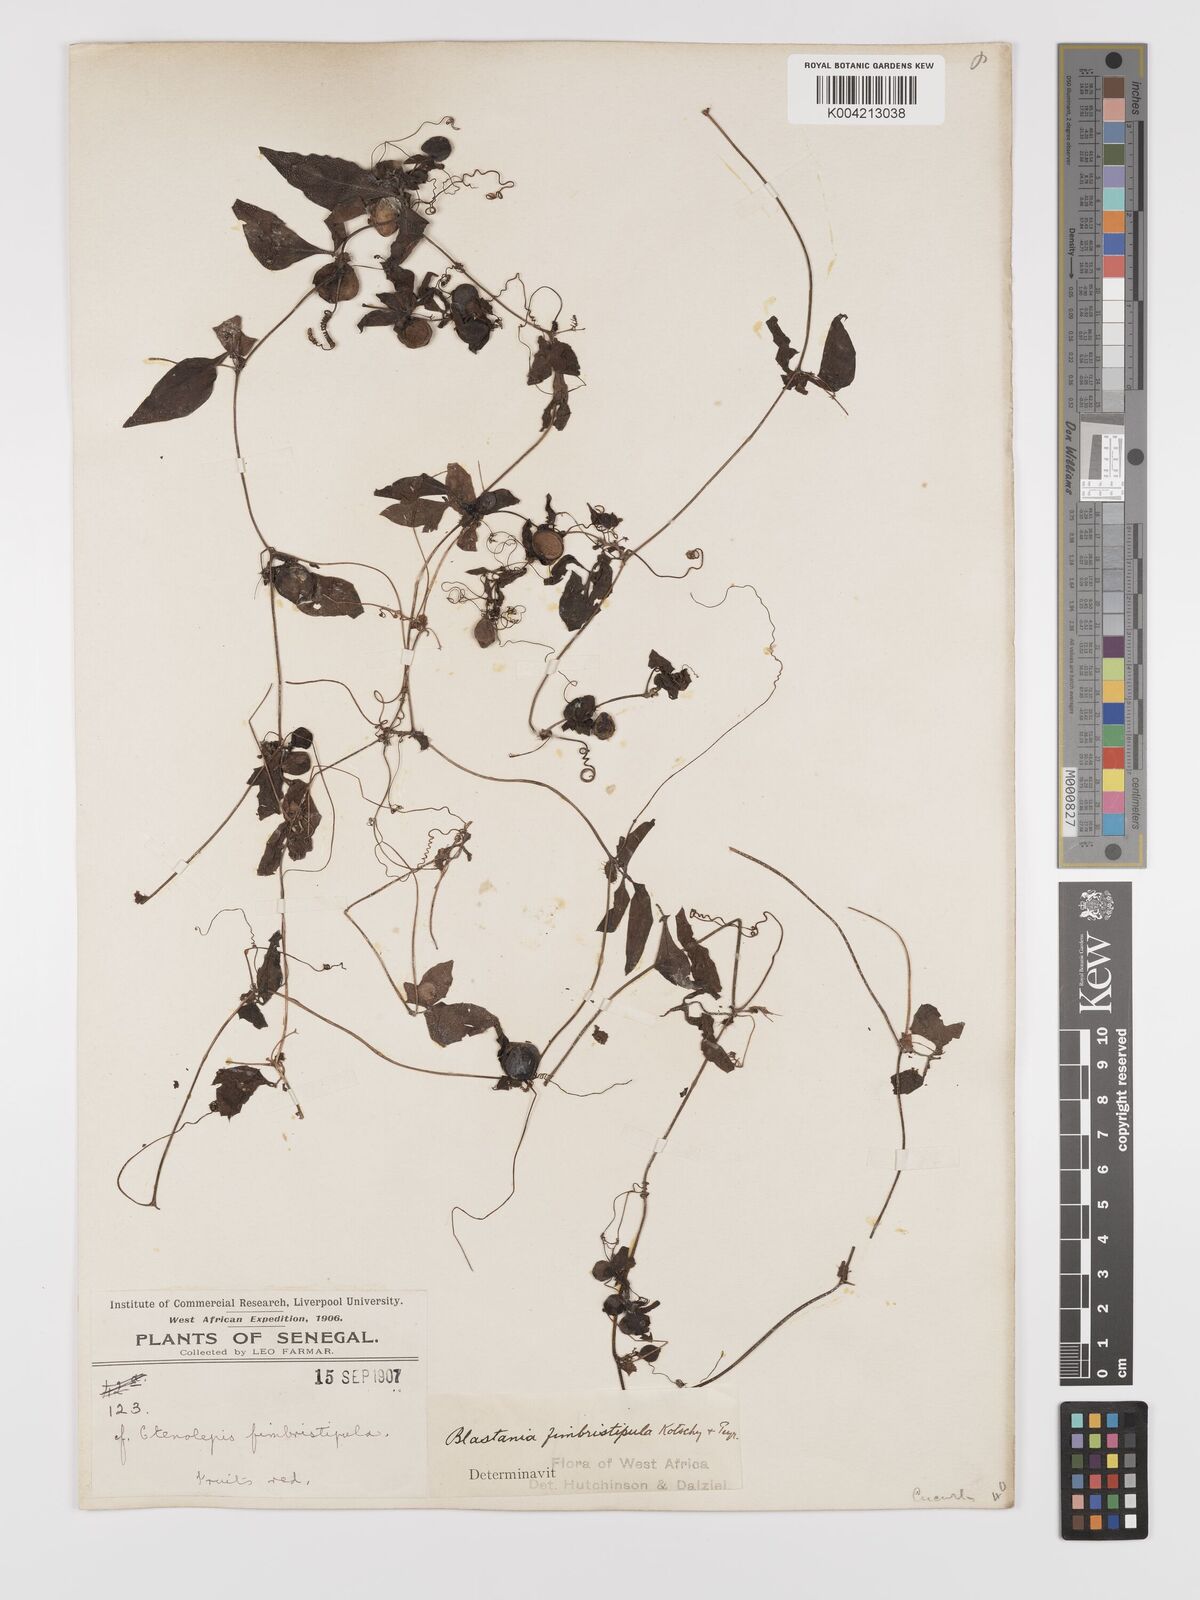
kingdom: Plantae
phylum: Tracheophyta
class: Magnoliopsida
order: Cucurbitales
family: Cucurbitaceae
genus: Blastania
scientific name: Blastania
